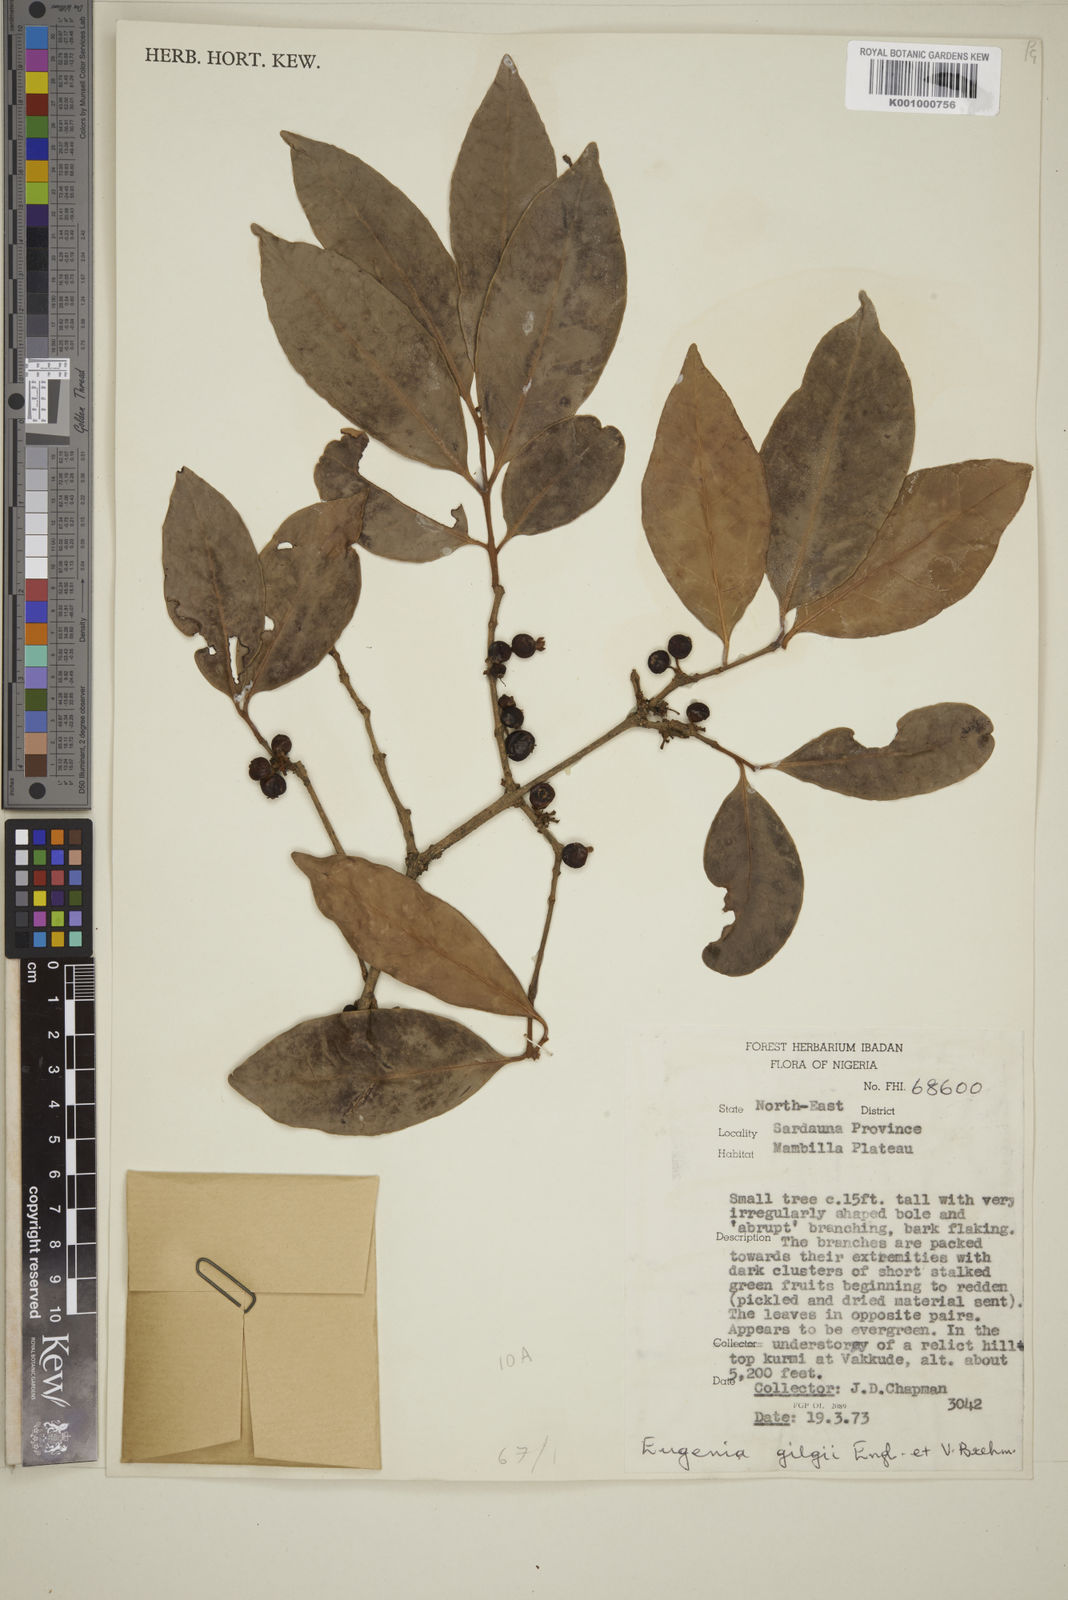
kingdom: Plantae
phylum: Tracheophyta
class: Magnoliopsida
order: Myrtales
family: Myrtaceae
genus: Eugenia
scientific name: Eugenia gilgii
